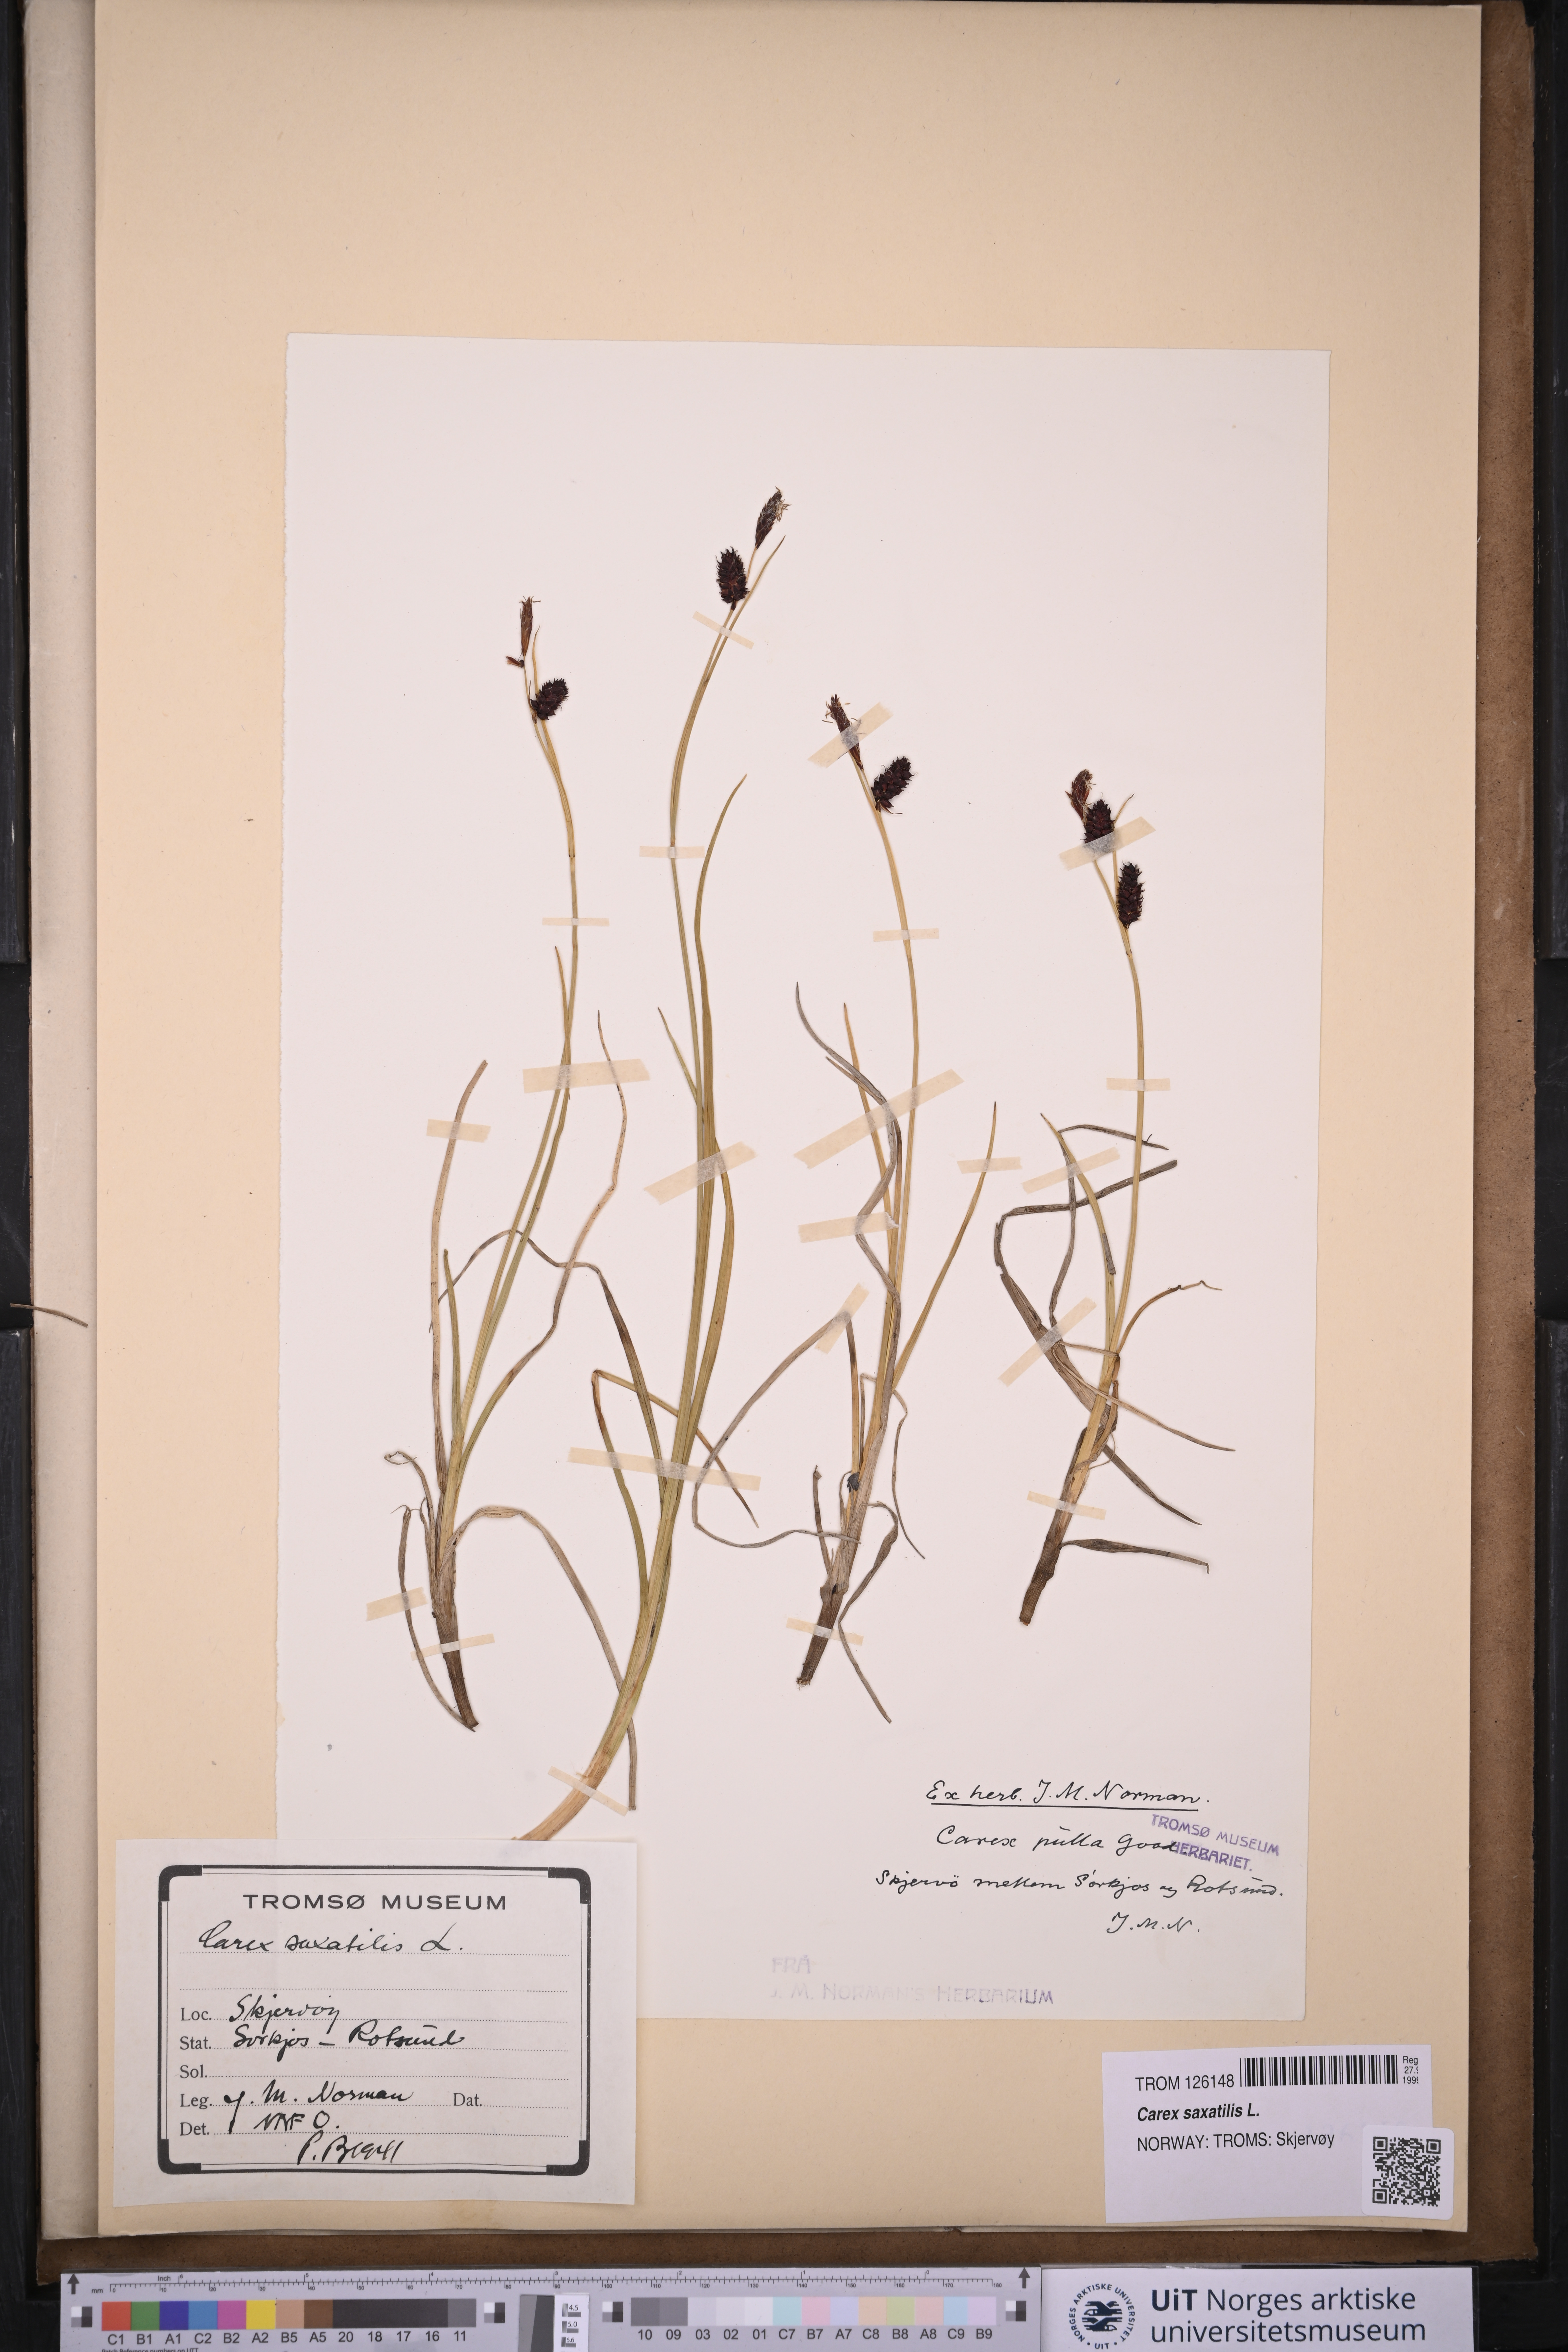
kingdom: Plantae
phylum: Tracheophyta
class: Liliopsida
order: Poales
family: Cyperaceae
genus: Carex
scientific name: Carex saxatilis
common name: Russet sedge
